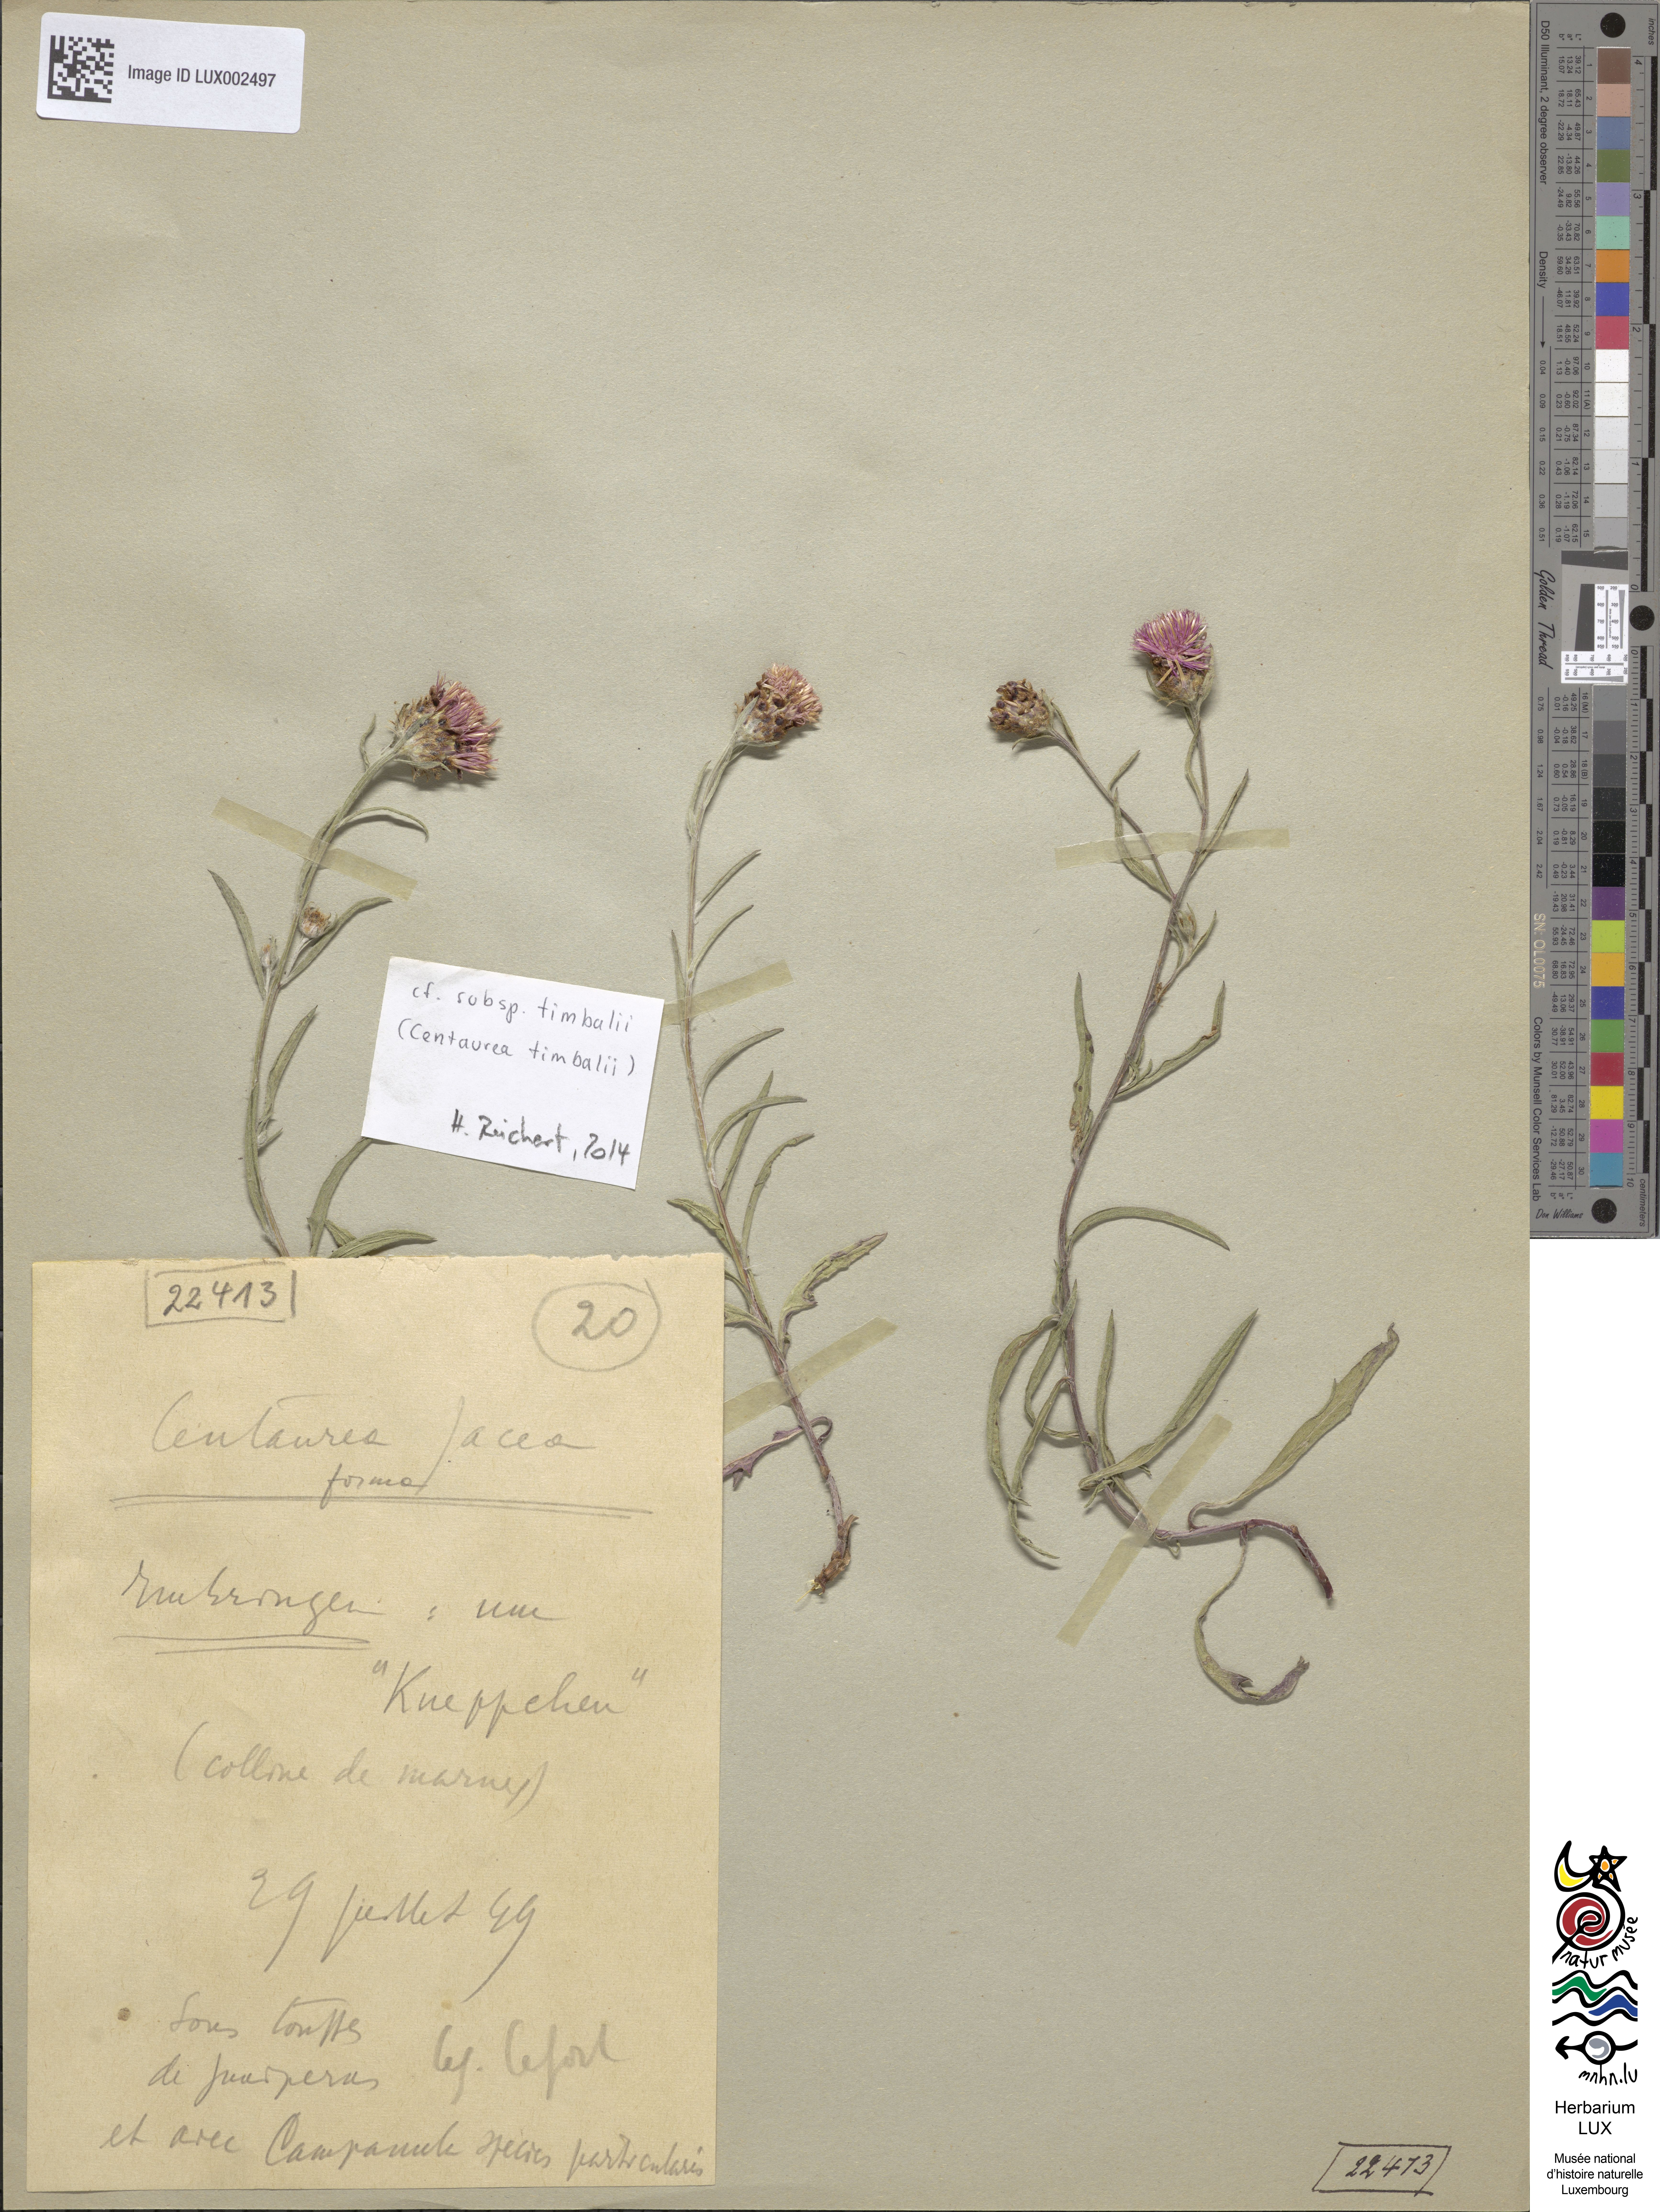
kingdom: Plantae
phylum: Tracheophyta
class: Magnoliopsida
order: Asterales
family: Asteraceae
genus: Centaurea
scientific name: Centaurea jacea
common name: Brown knapweed
